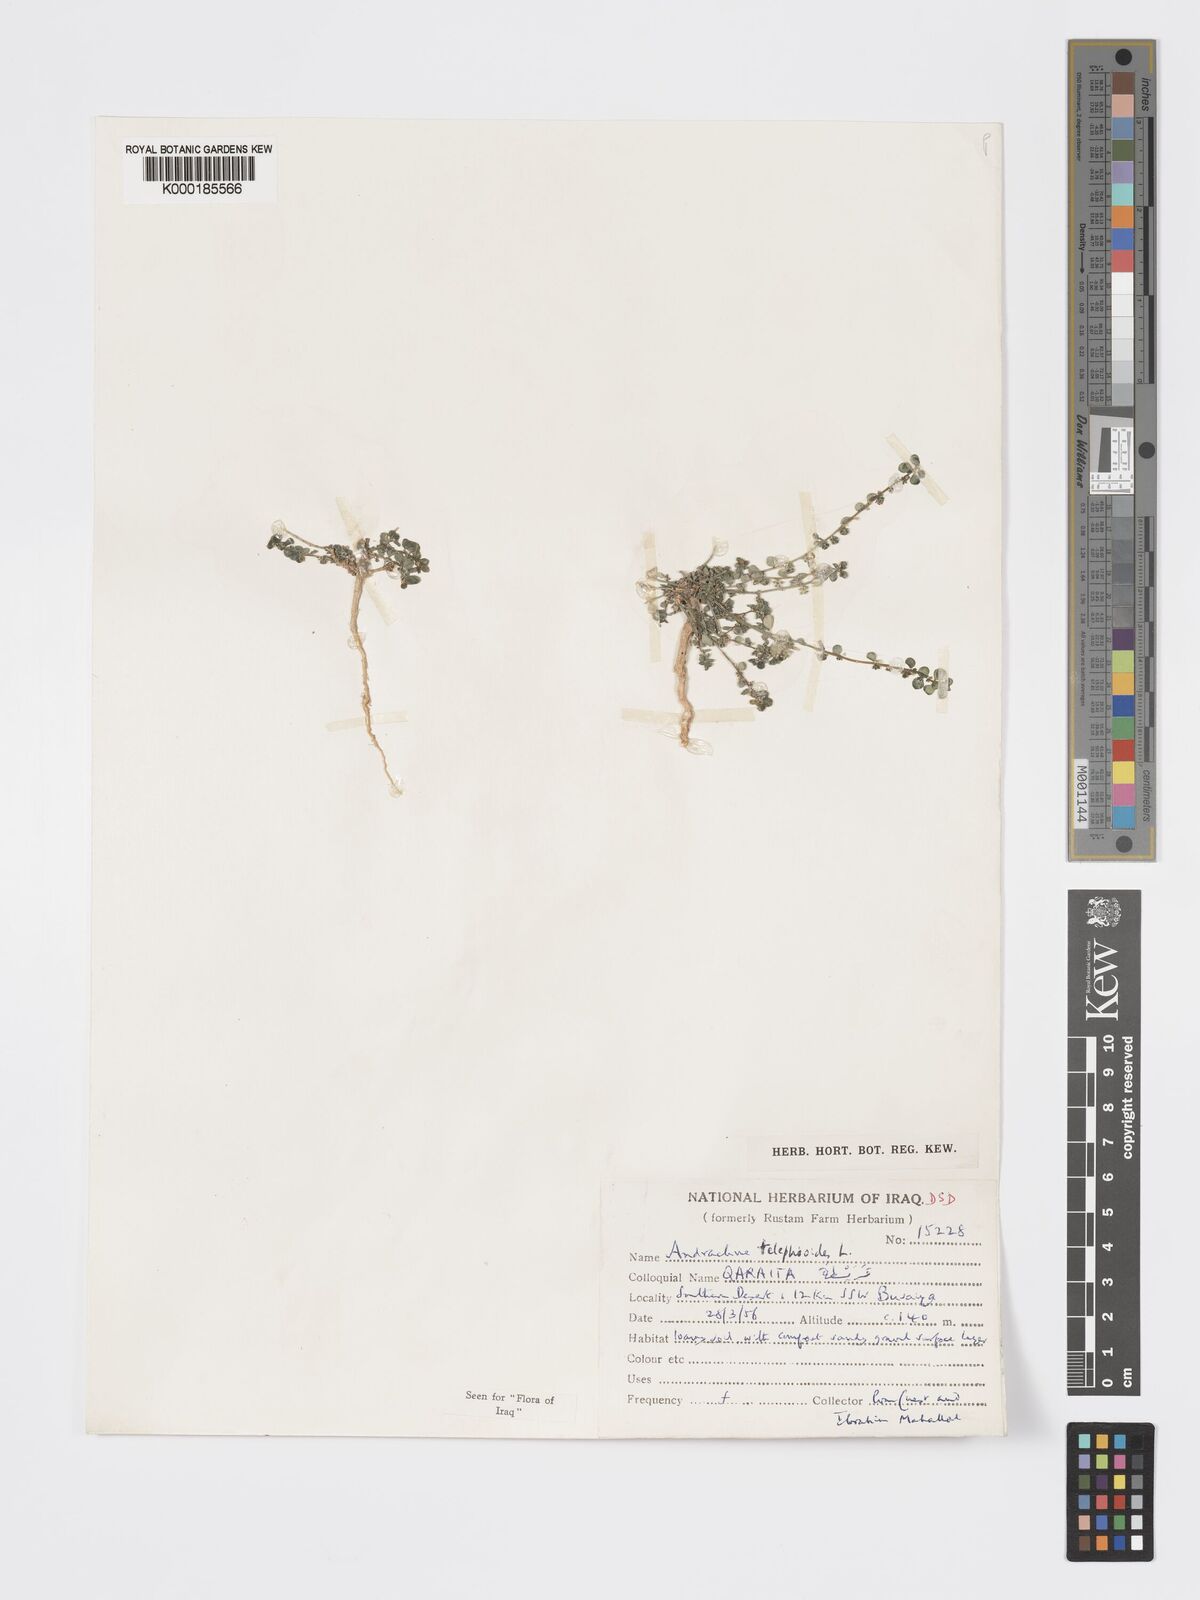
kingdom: Plantae
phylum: Tracheophyta
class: Magnoliopsida
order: Malpighiales
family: Phyllanthaceae
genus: Andrachne
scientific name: Andrachne telephioides
